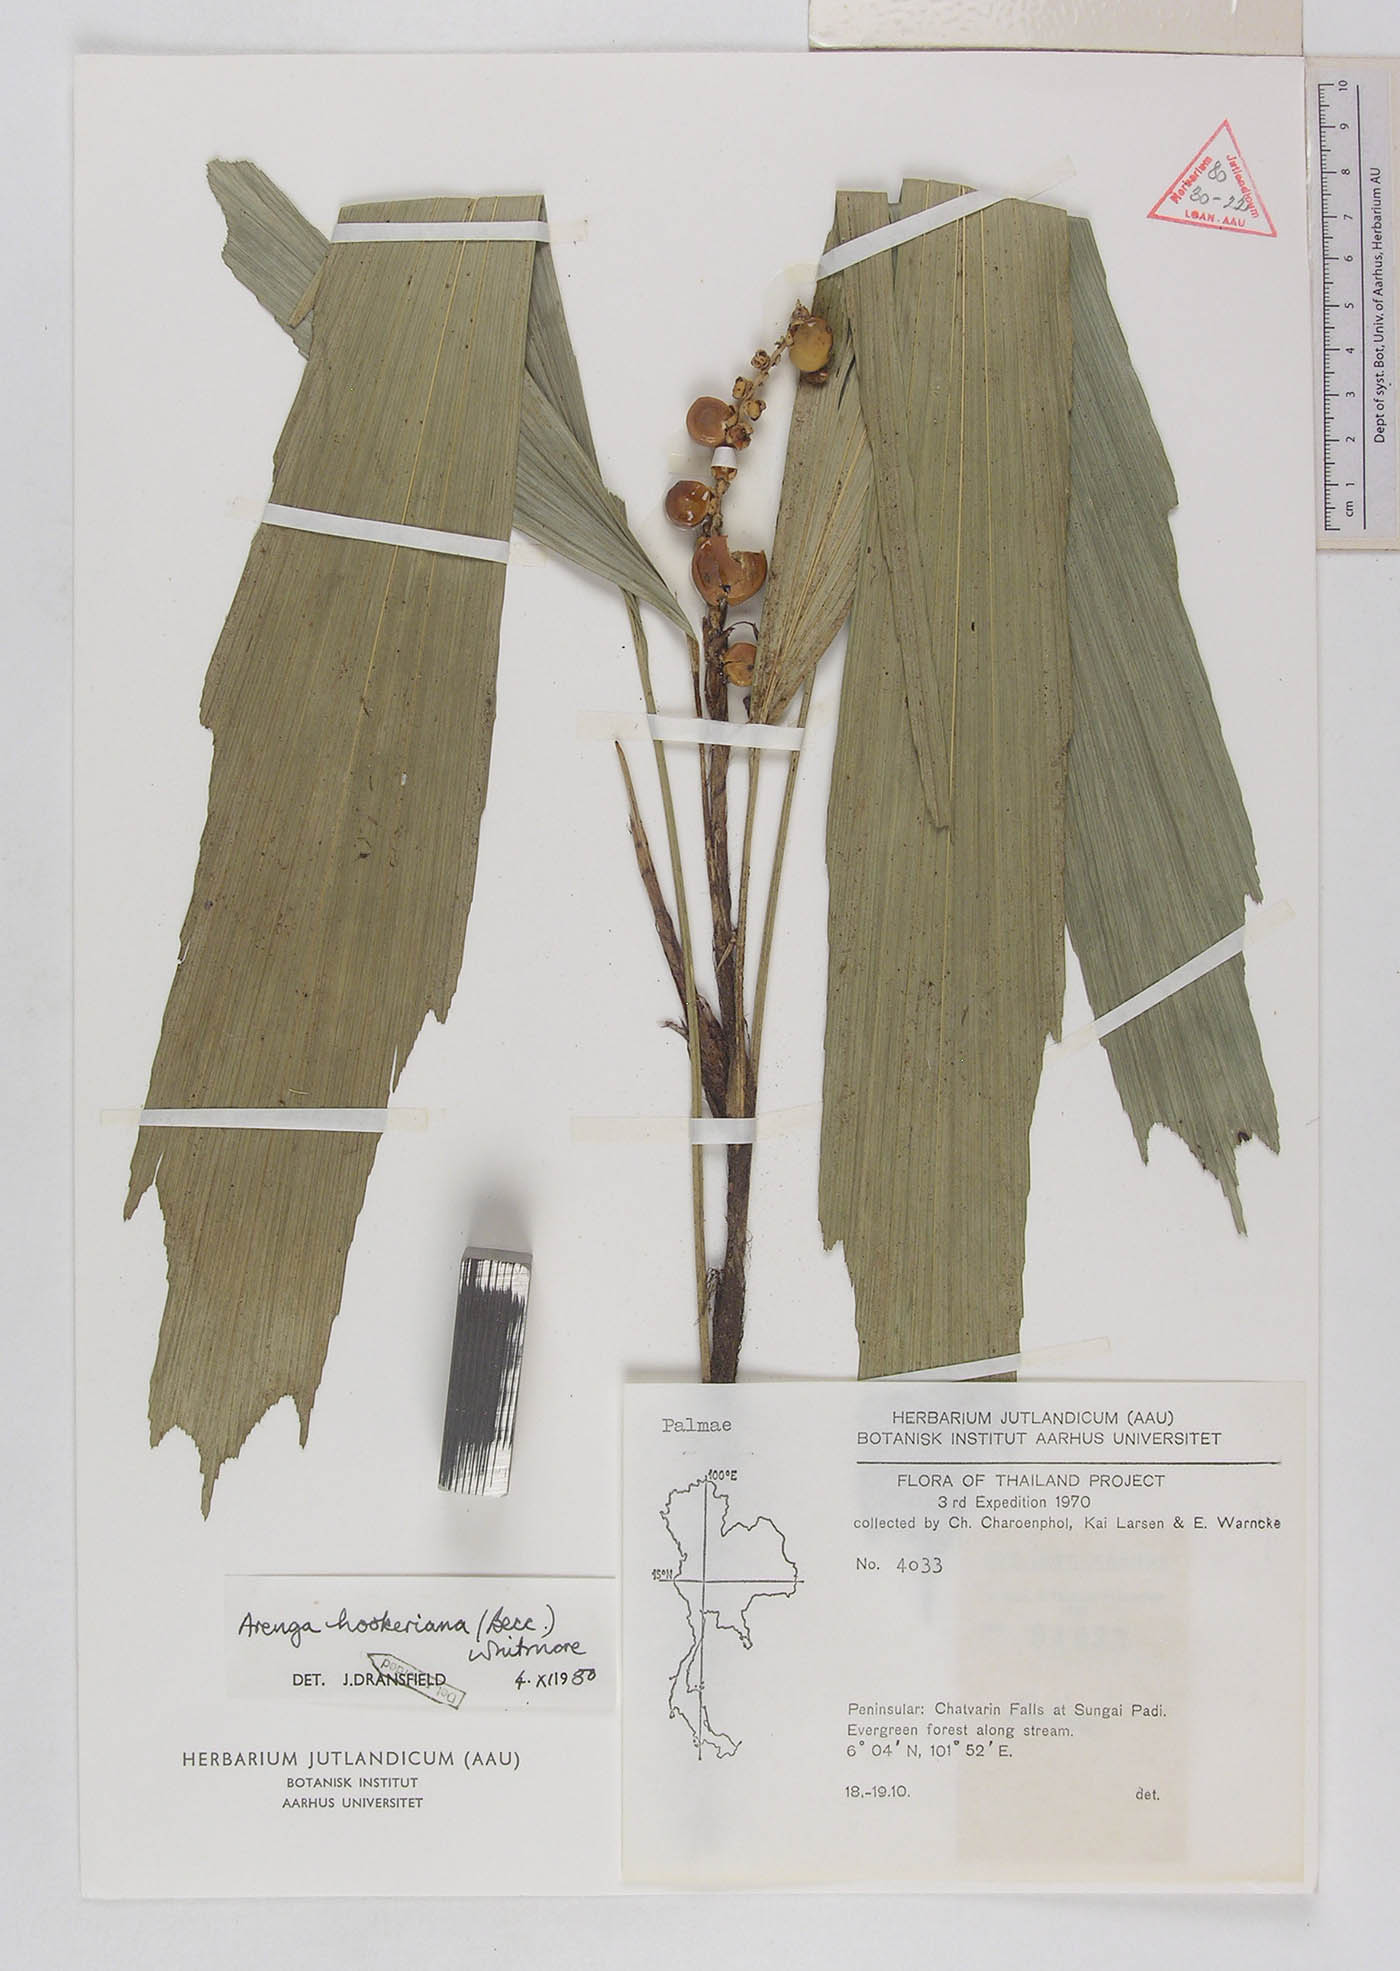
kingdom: Plantae
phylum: Tracheophyta
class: Liliopsida
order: Arecales
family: Arecaceae
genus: Arenga
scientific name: Arenga hookeriana
